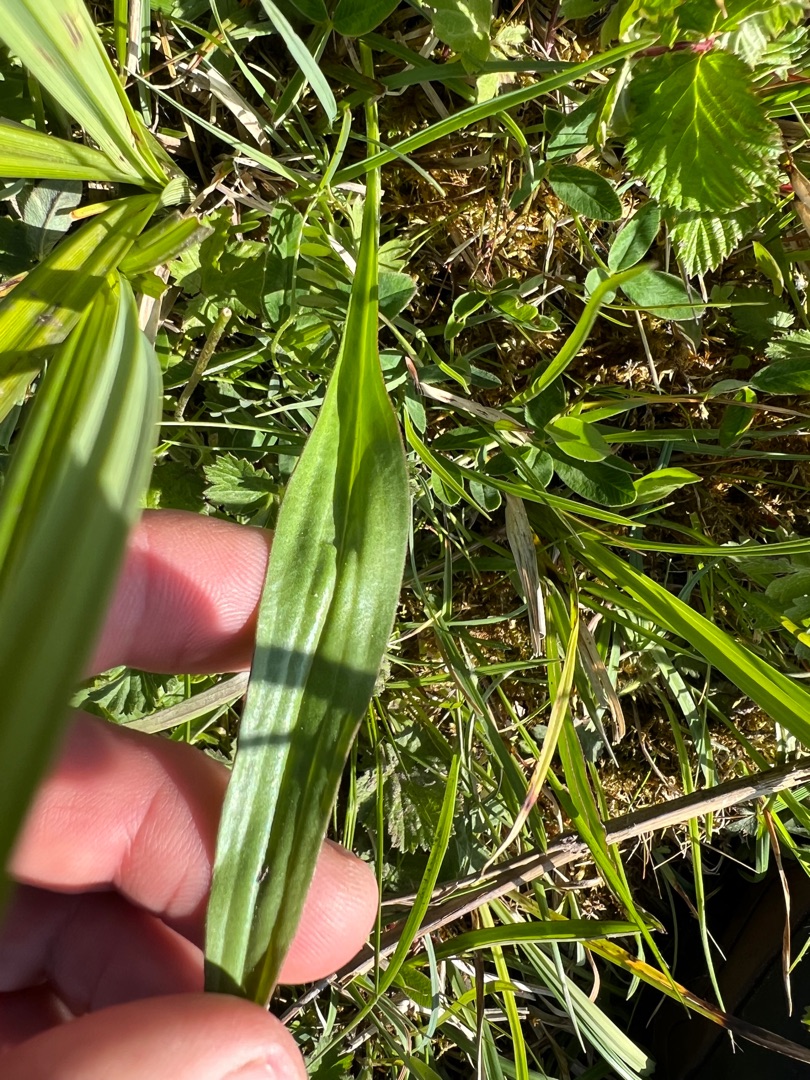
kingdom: Plantae
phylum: Tracheophyta
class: Magnoliopsida
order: Asterales
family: Asteraceae
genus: Scorzonera
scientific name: Scorzonera humilis
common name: Lav skorsoner
